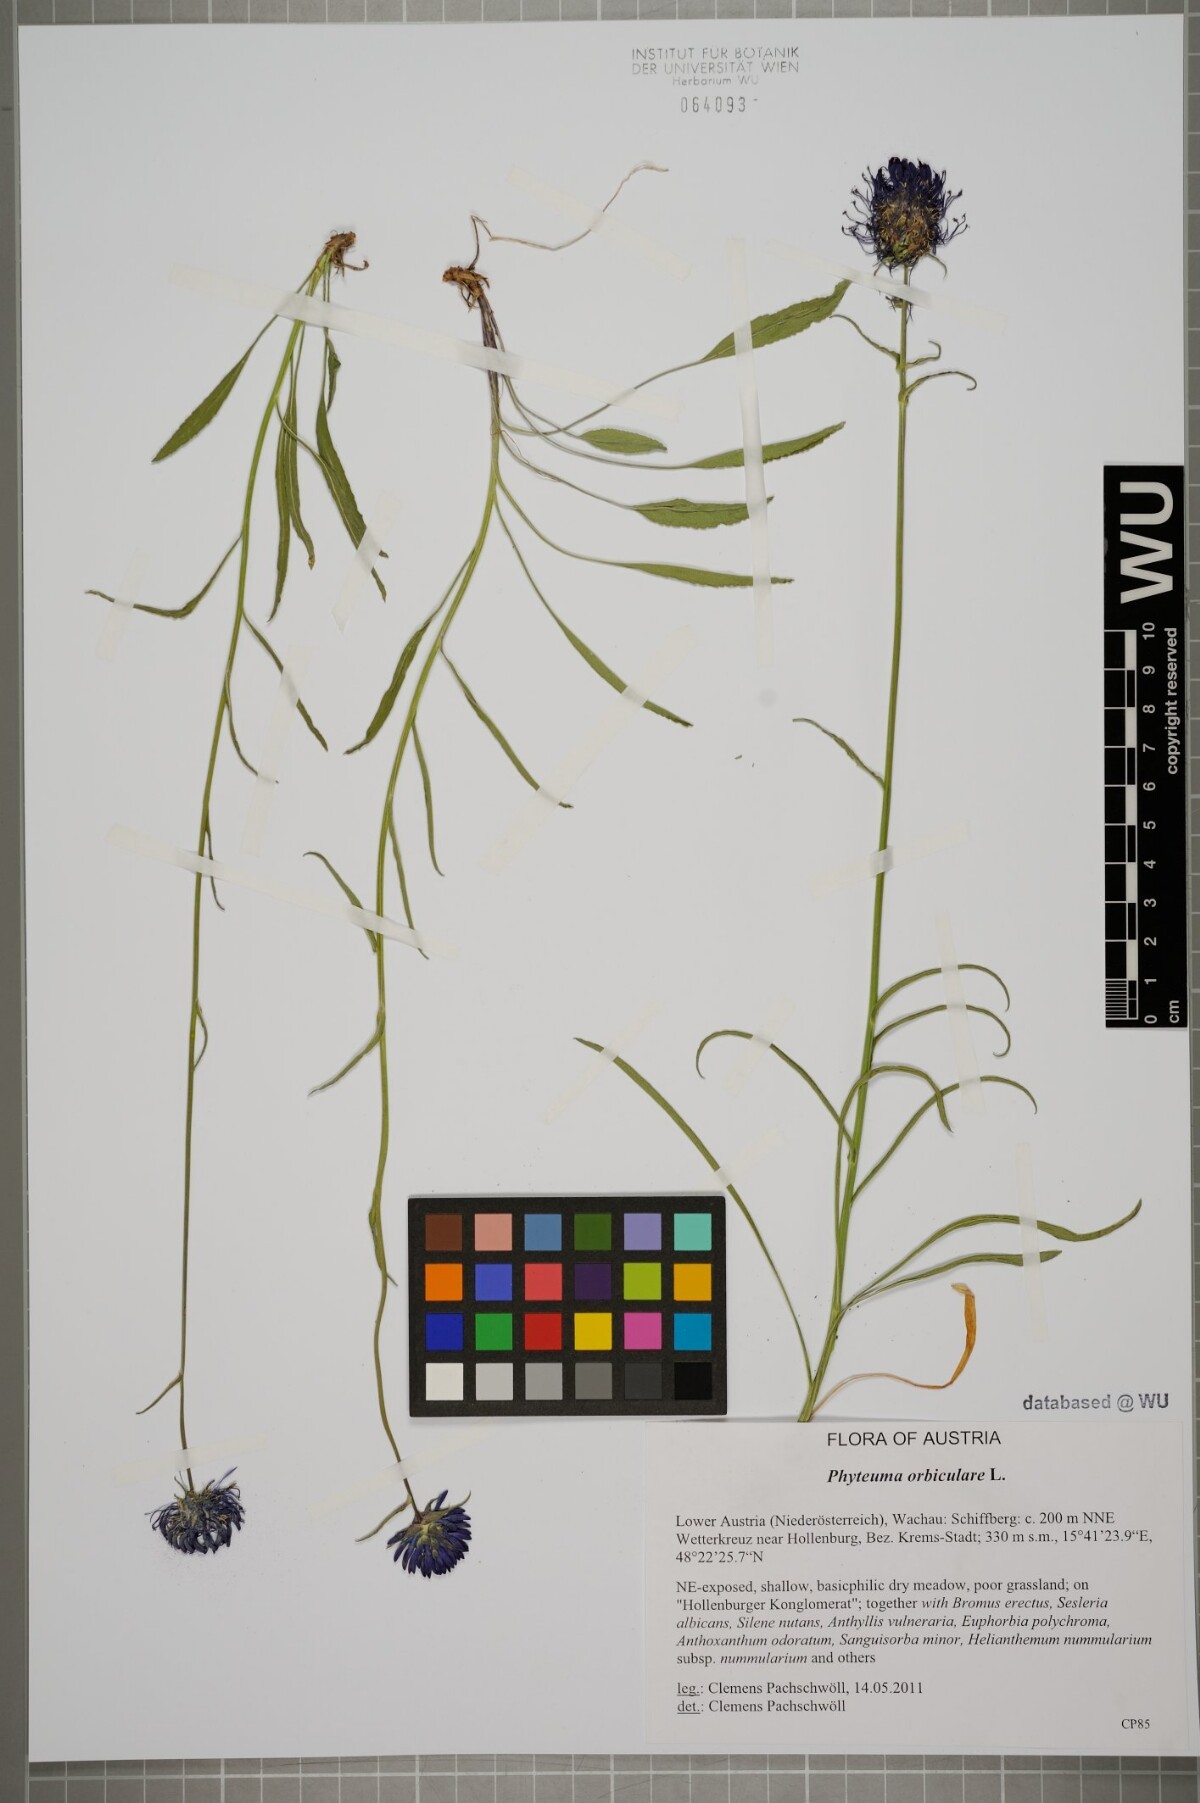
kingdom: Plantae
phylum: Tracheophyta
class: Magnoliopsida
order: Asterales
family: Campanulaceae
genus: Phyteuma
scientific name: Phyteuma orbiculare
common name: Round-headed rampion
